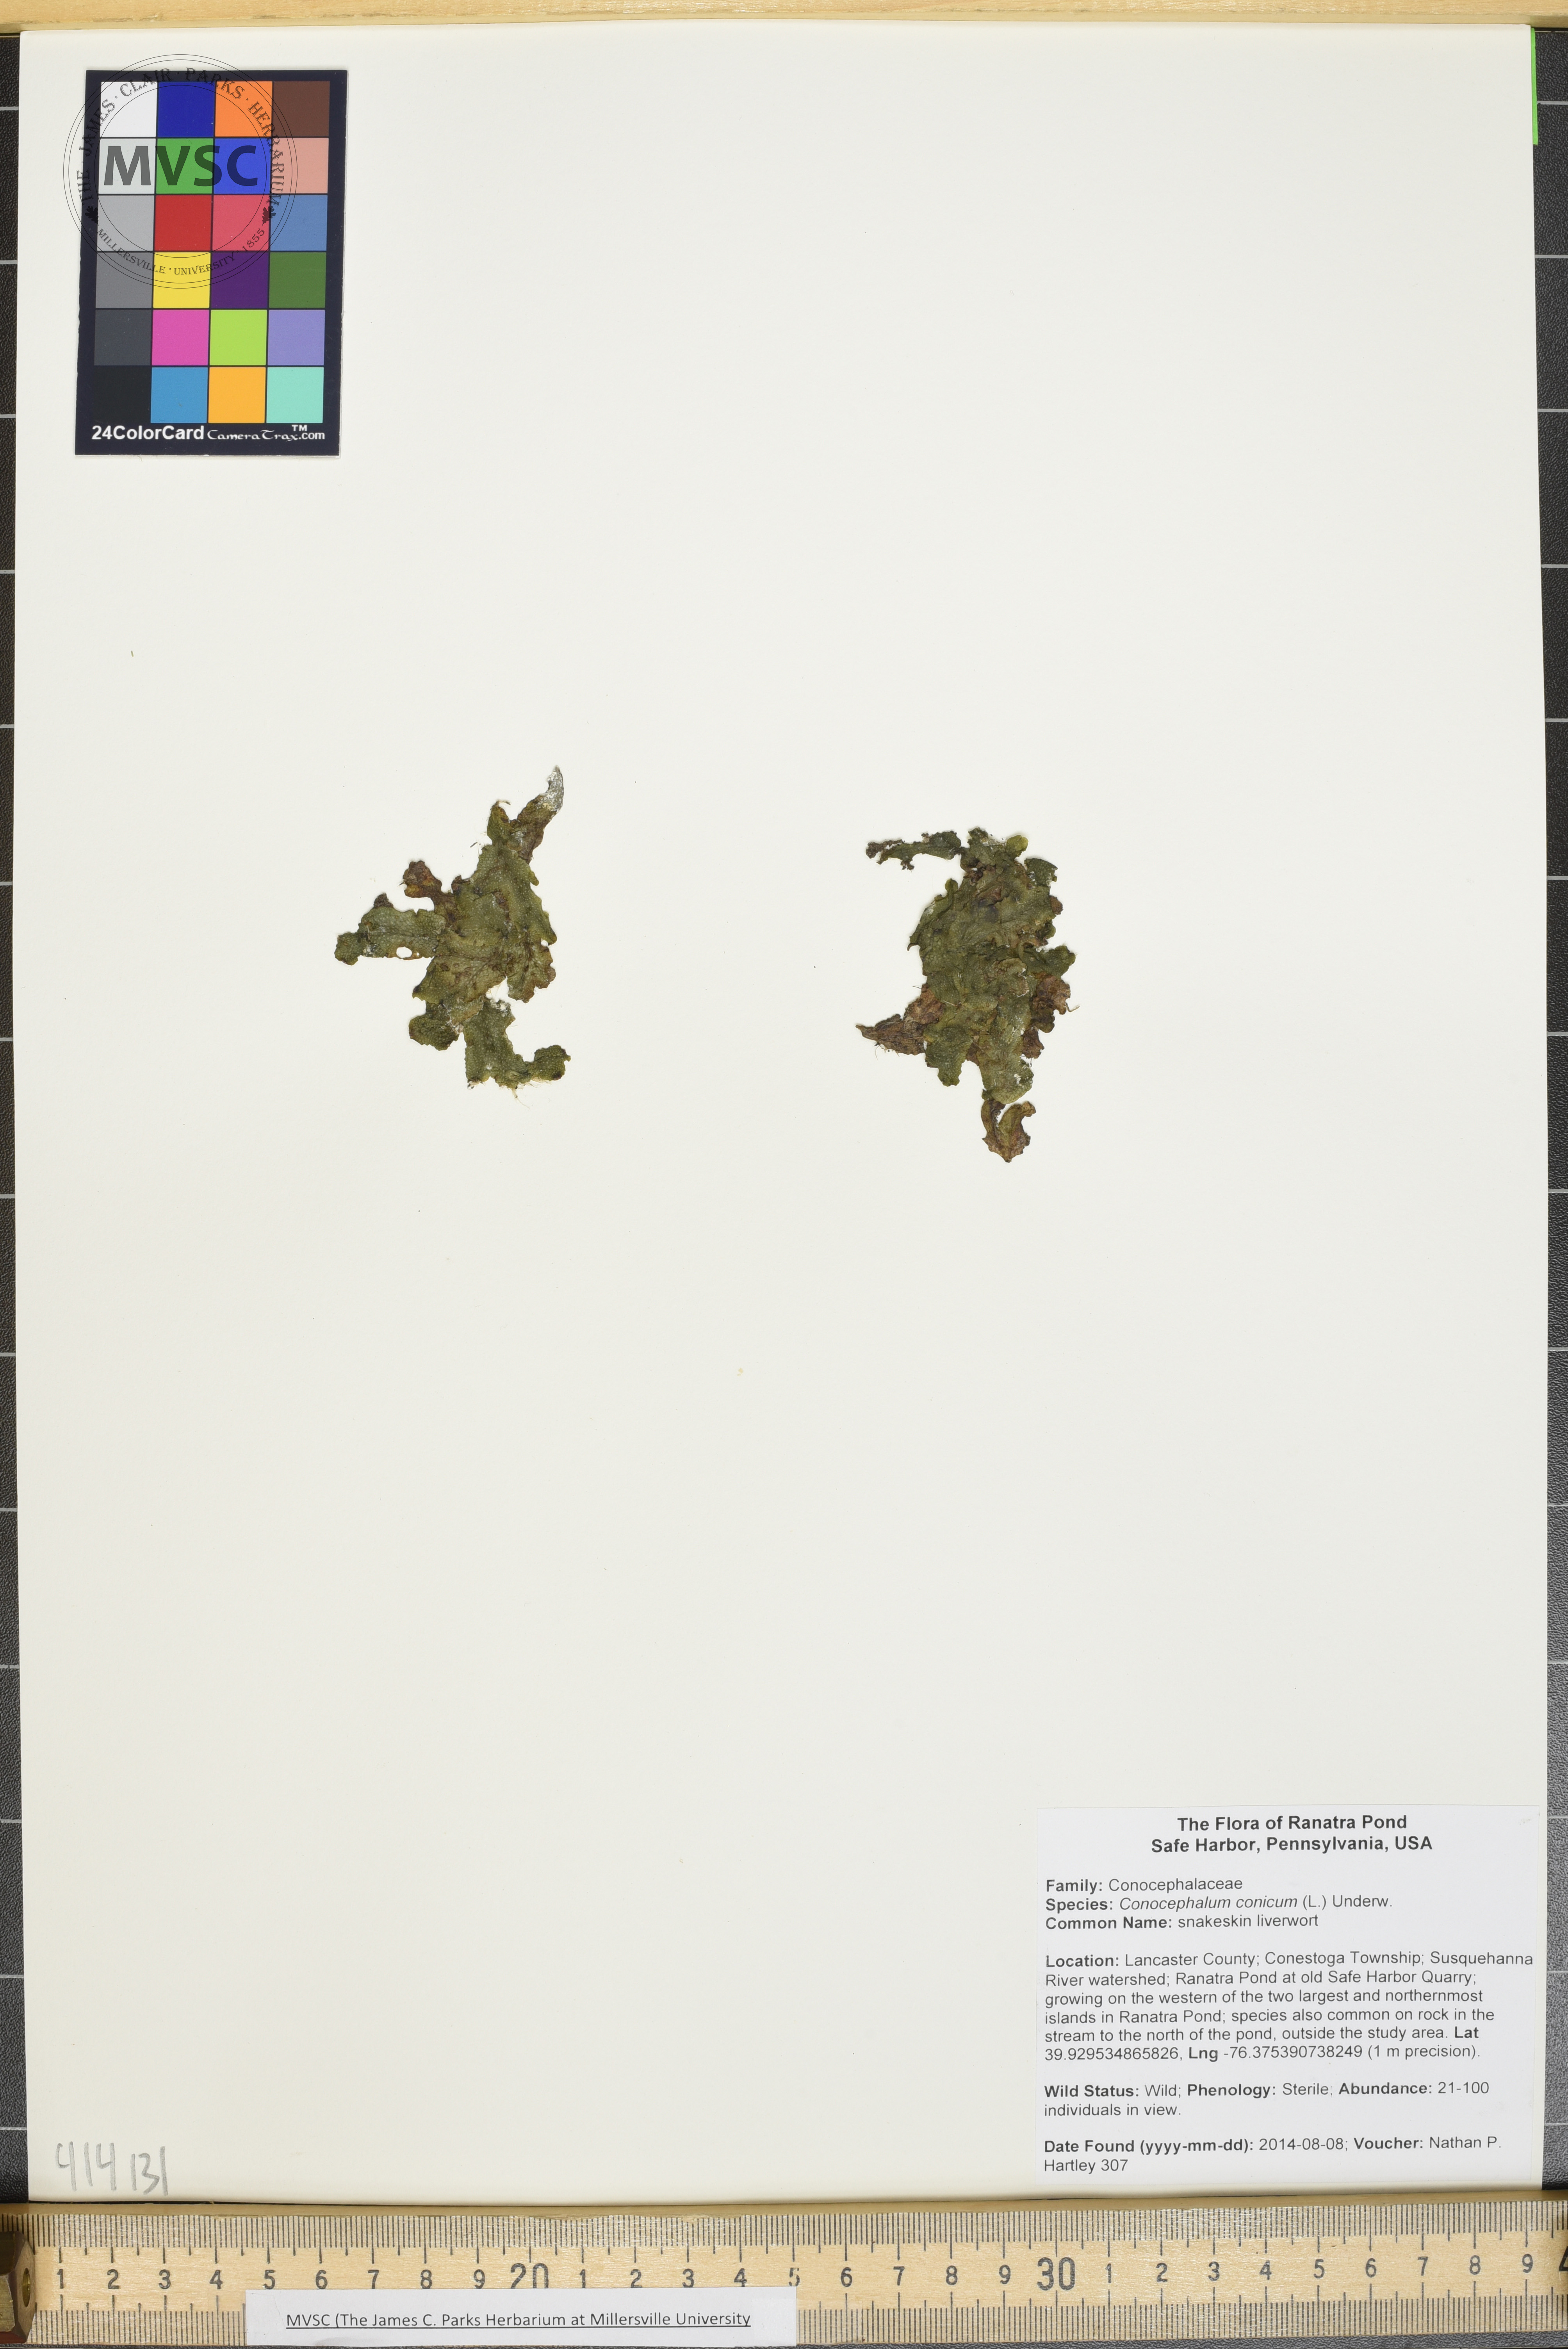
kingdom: Plantae
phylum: Marchantiophyta
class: Marchantiopsida
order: Marchantiales
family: Conocephalaceae
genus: Conocephalum
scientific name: Conocephalum salebrosum
